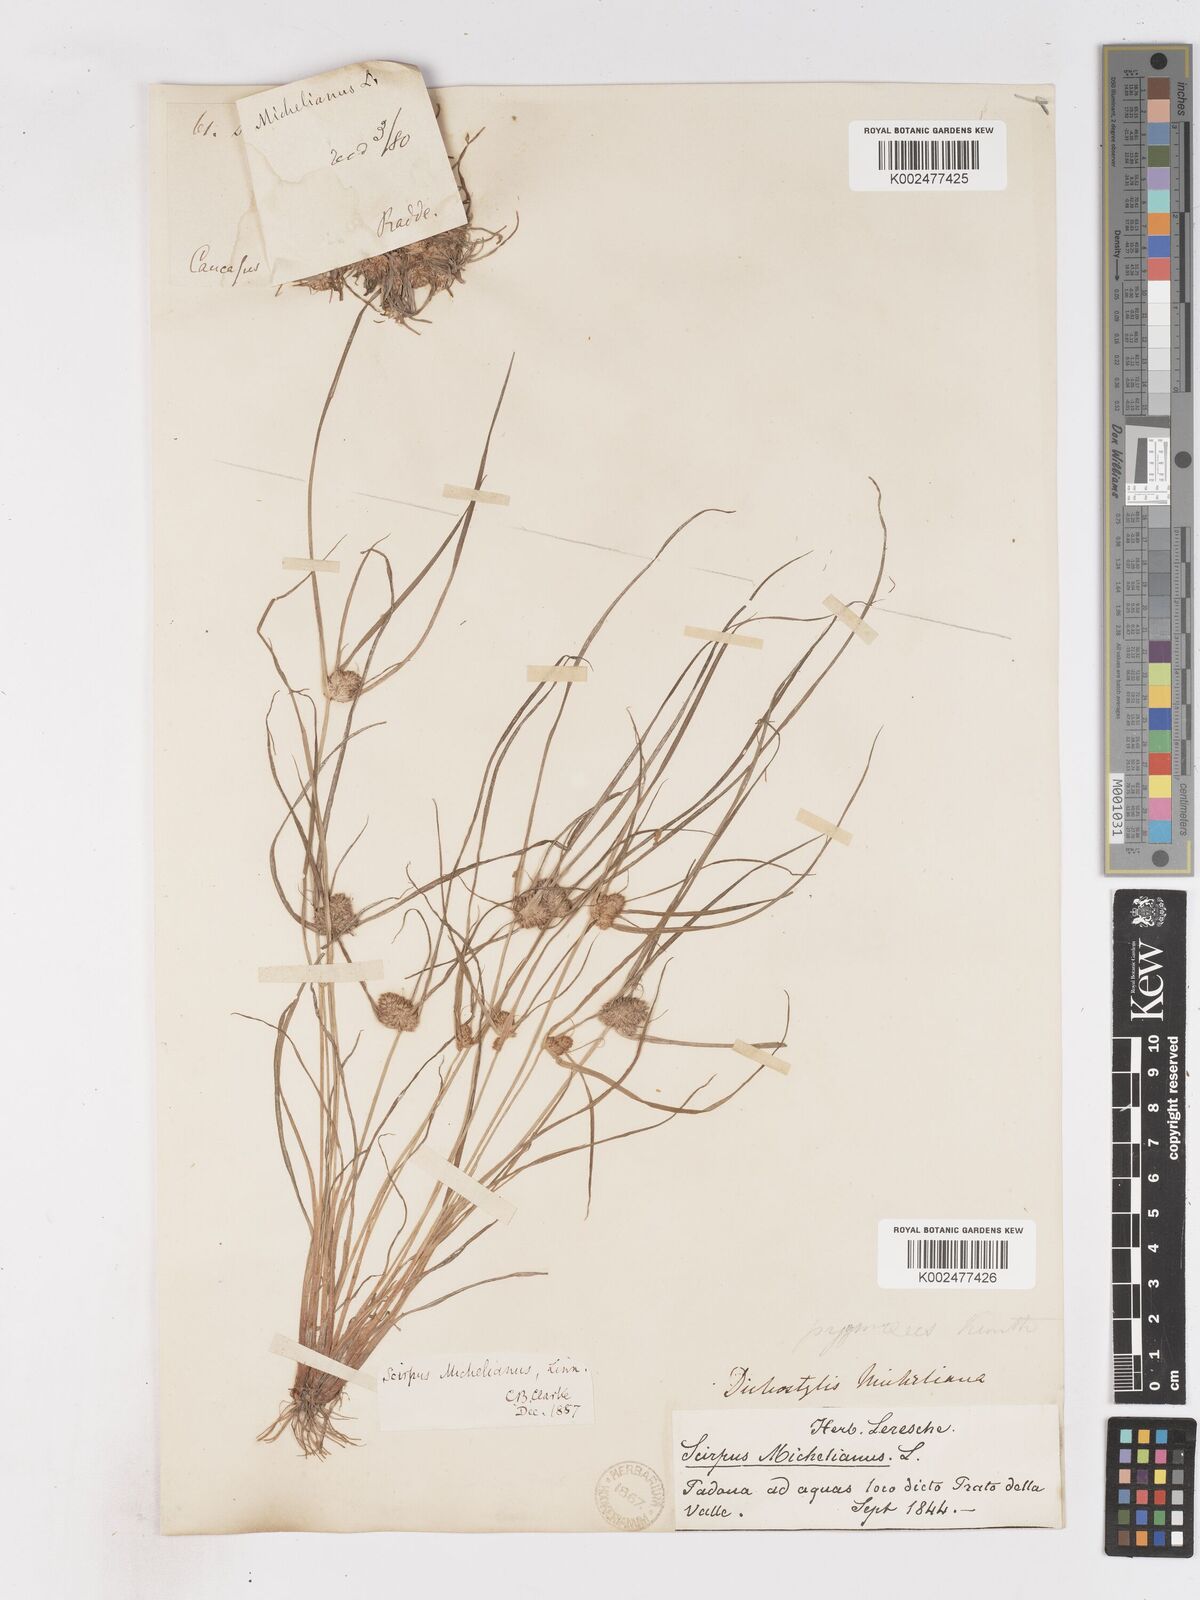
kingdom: Plantae
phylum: Tracheophyta
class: Liliopsida
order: Poales
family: Cyperaceae
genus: Cyperus
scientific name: Cyperus michelianus
